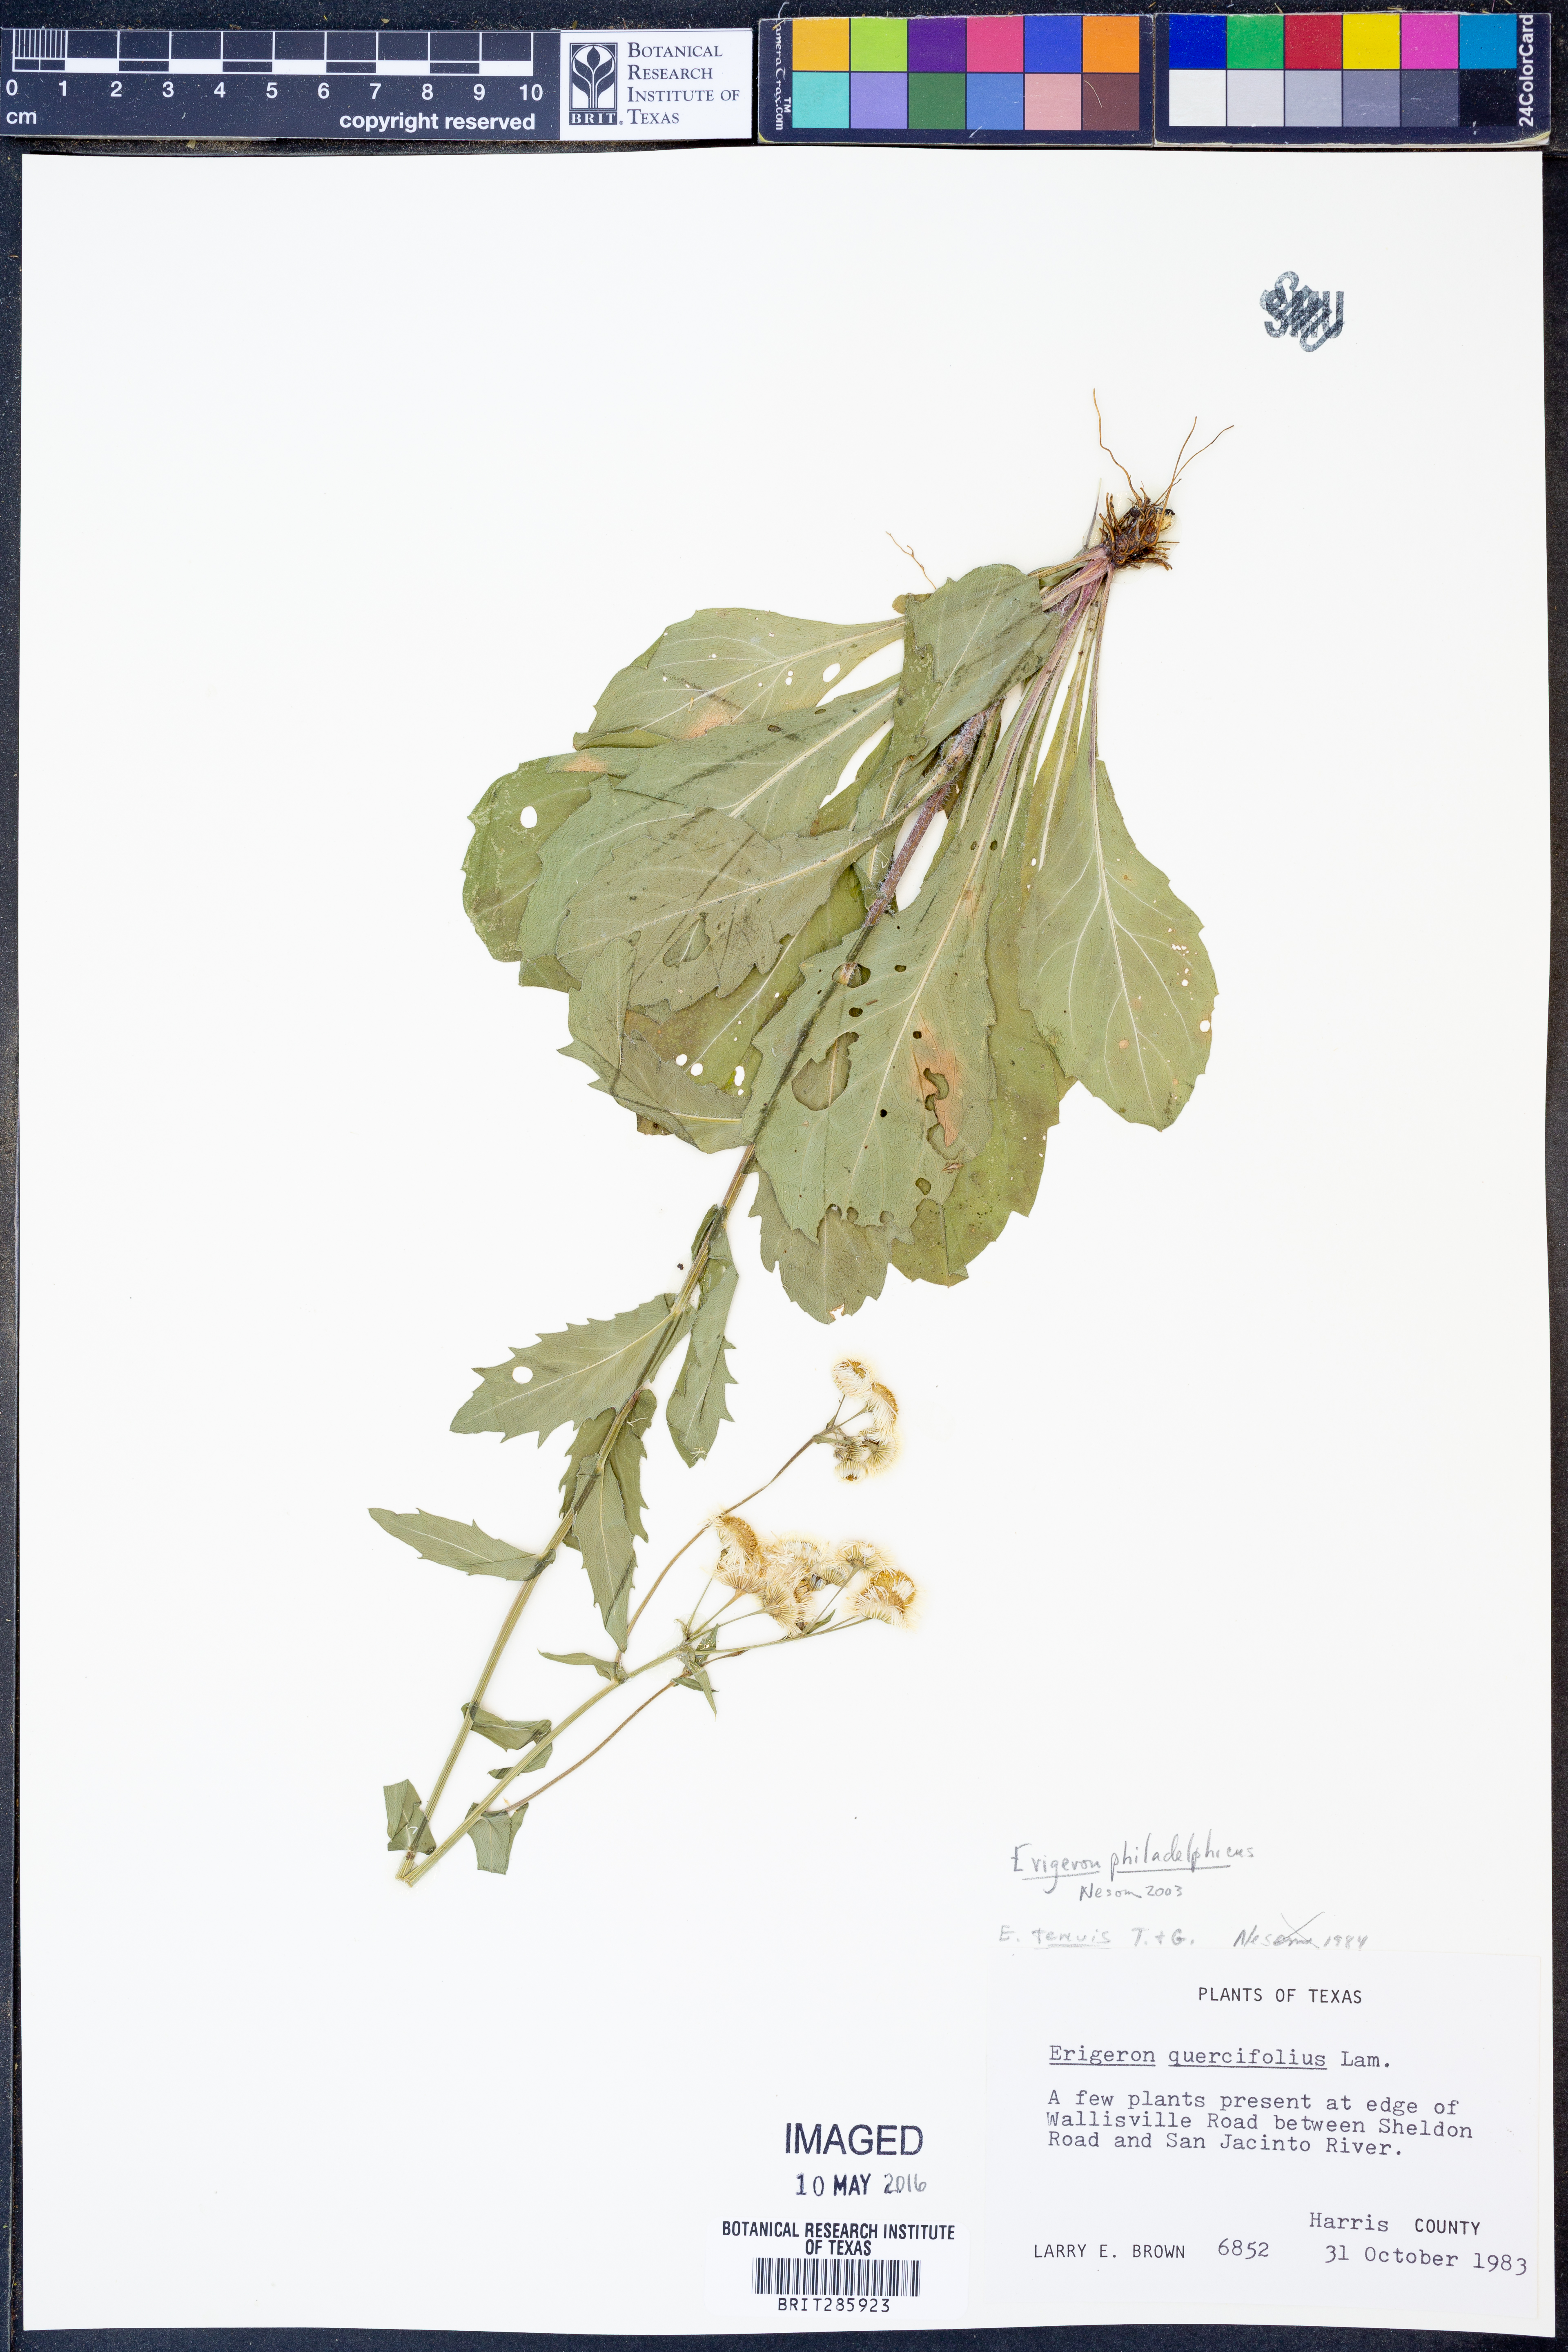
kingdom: Plantae
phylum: Tracheophyta
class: Magnoliopsida
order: Asterales
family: Asteraceae
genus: Erigeron
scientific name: Erigeron philadelphicus
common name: Robin's-plantain
